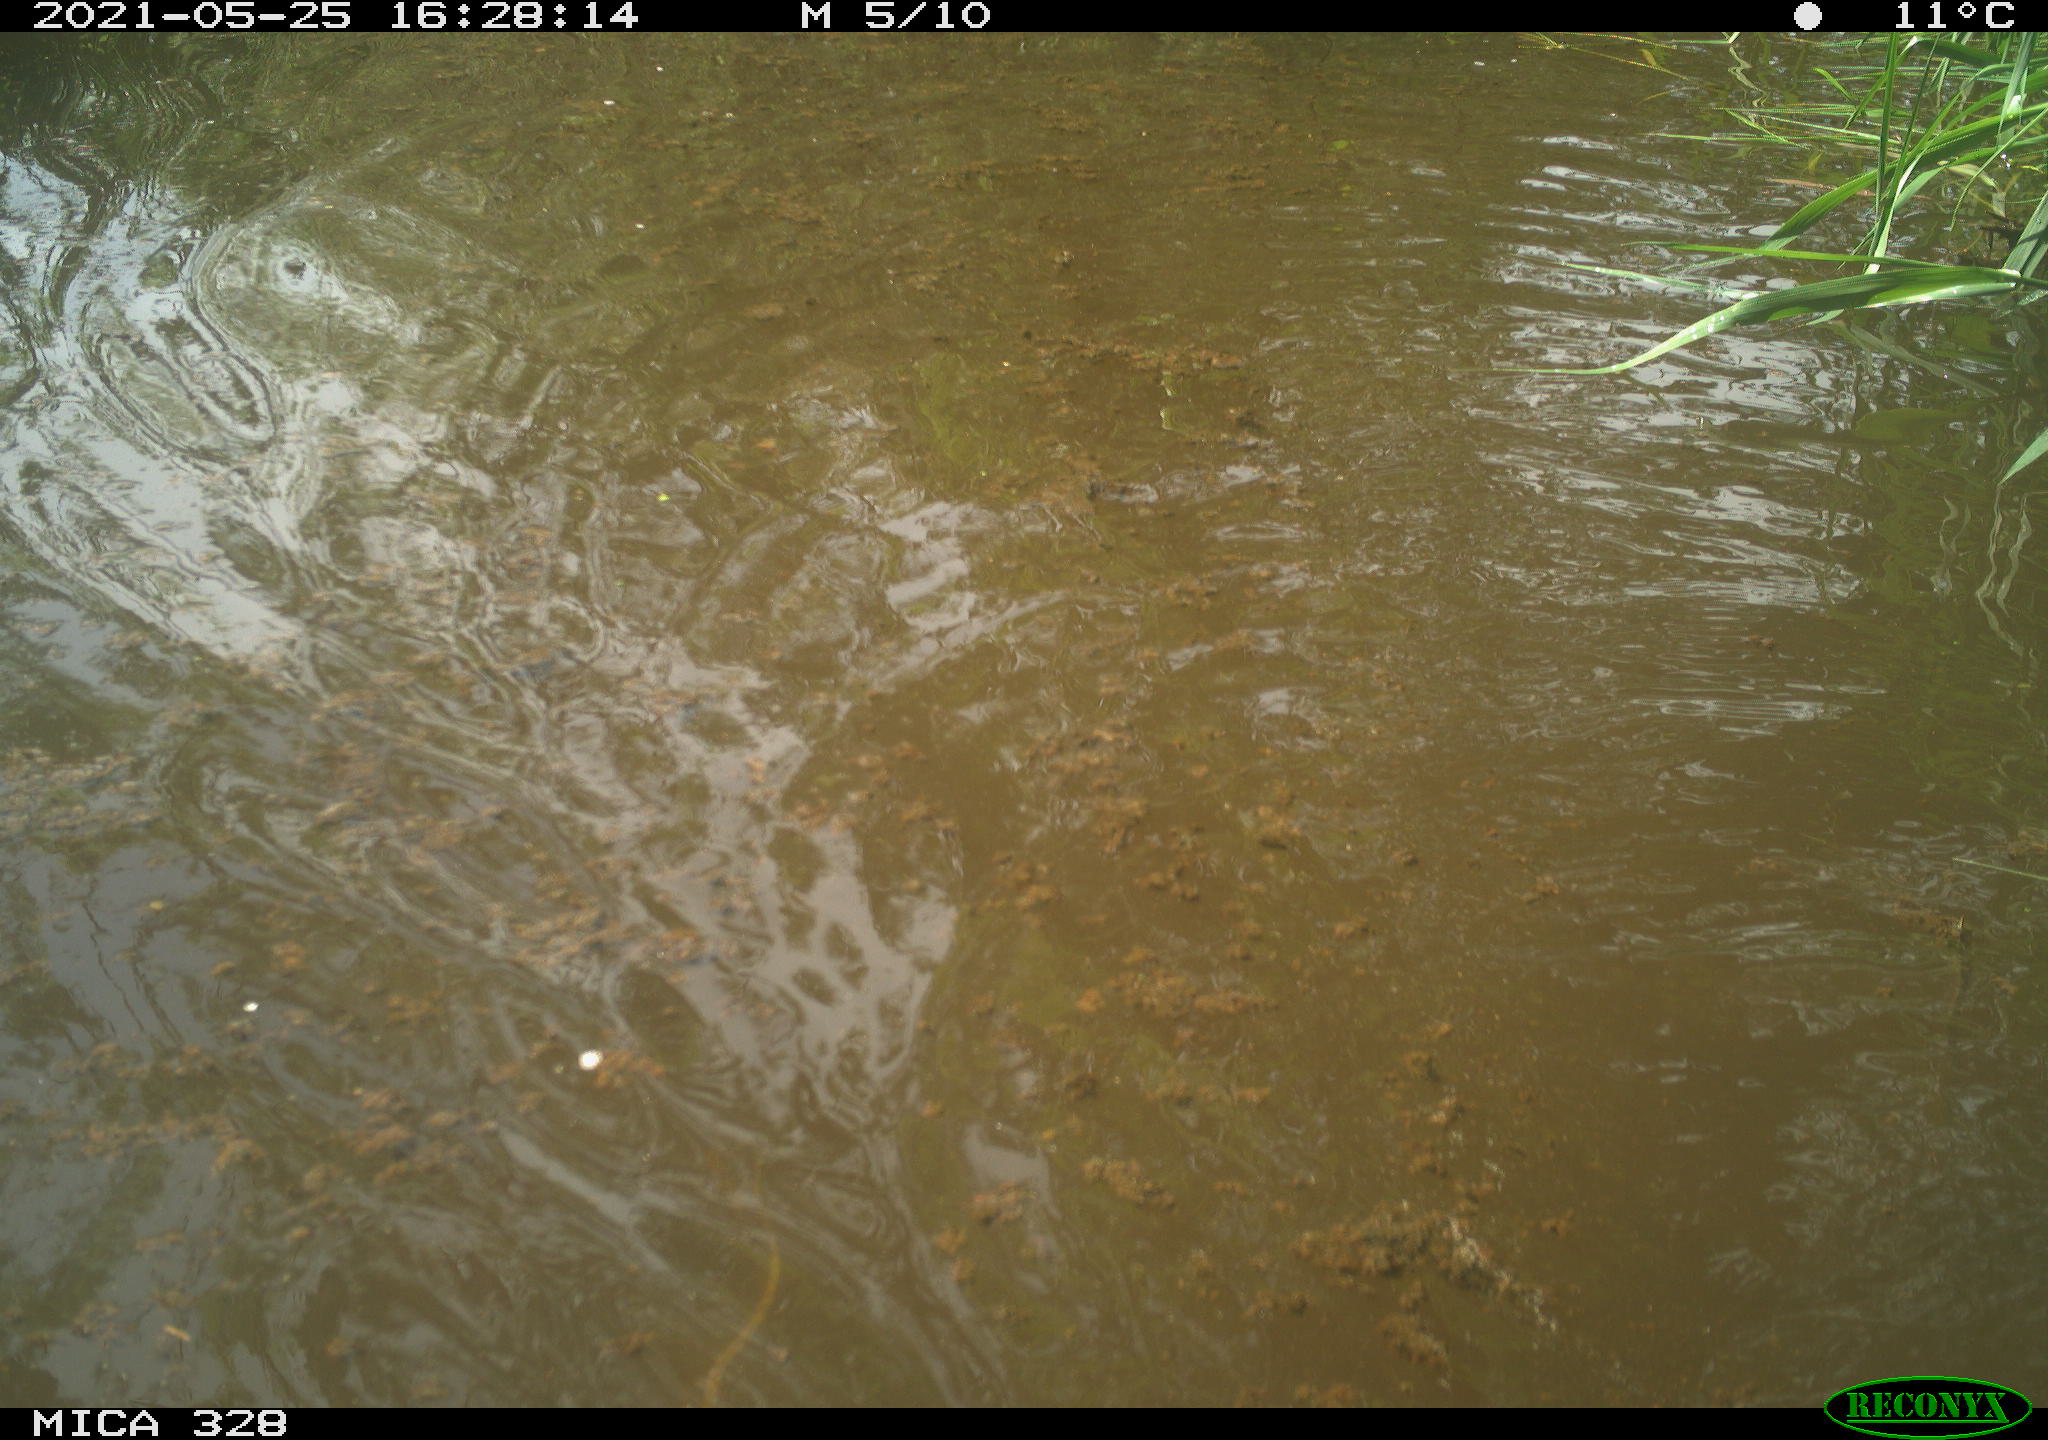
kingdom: Animalia
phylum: Chordata
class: Mammalia
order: Rodentia
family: Cricetidae
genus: Ondatra
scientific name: Ondatra zibethicus
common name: Muskrat
